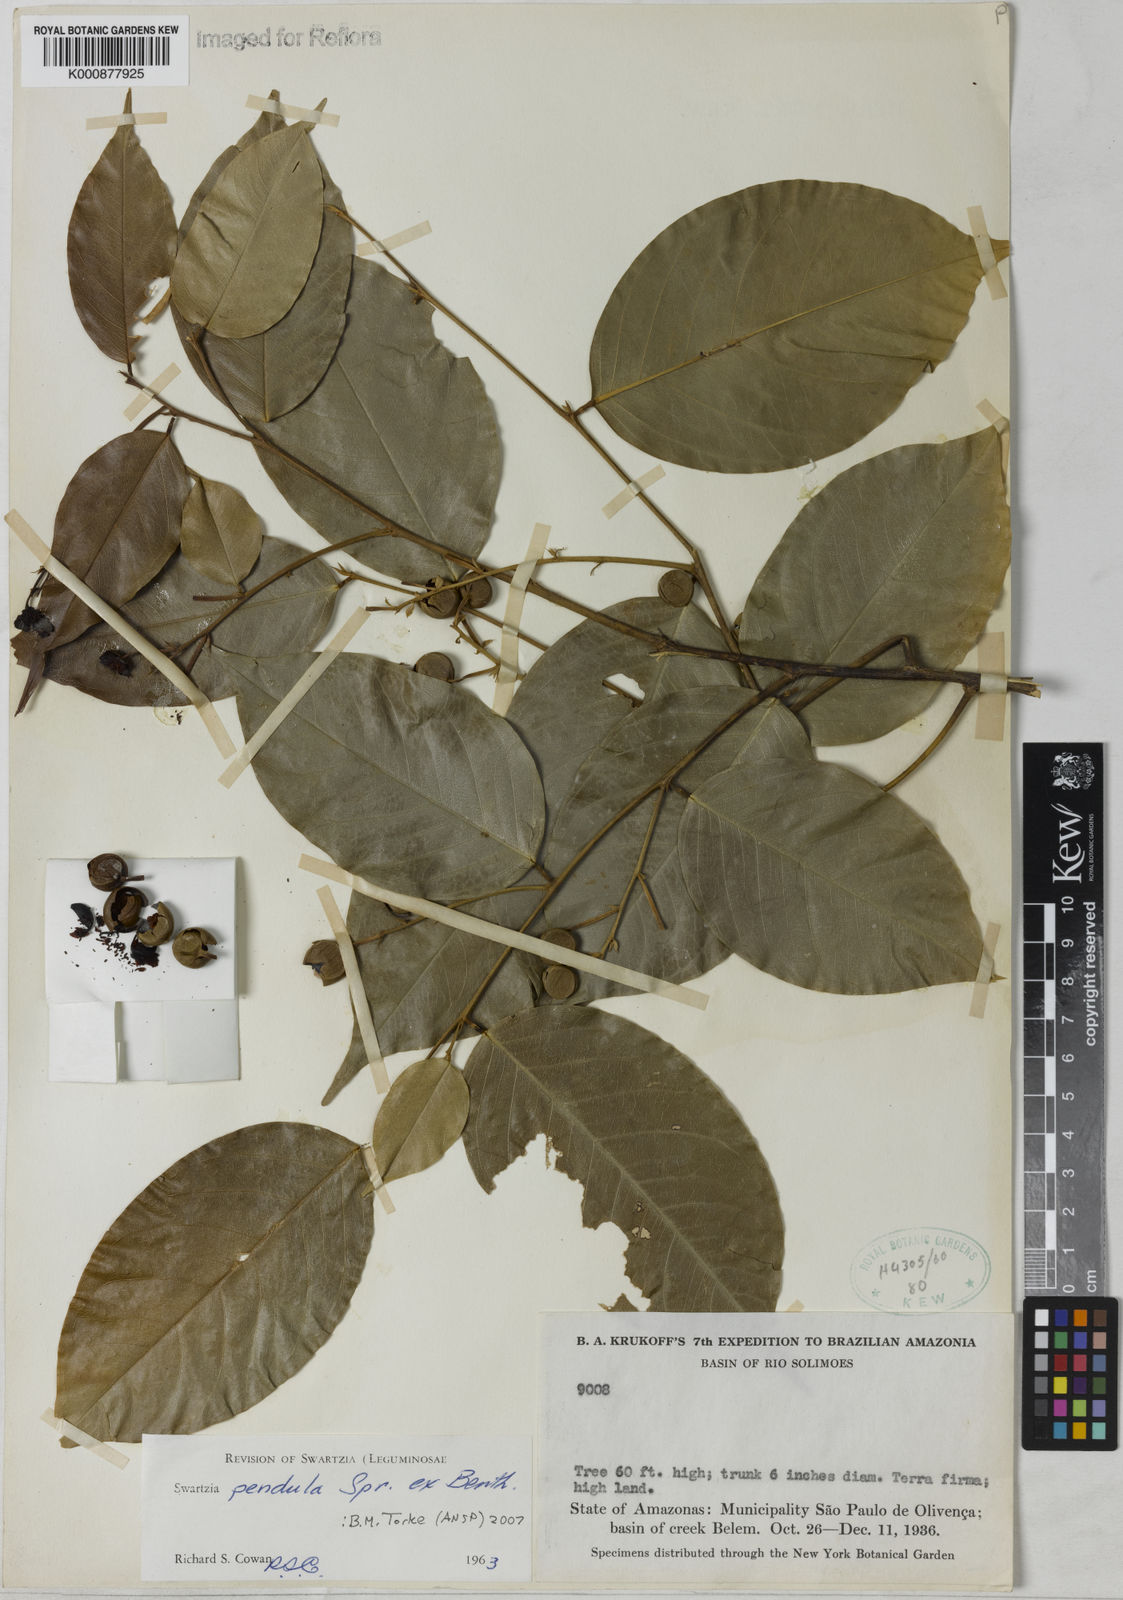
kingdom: Plantae
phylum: Tracheophyta
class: Magnoliopsida
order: Fabales
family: Fabaceae
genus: Swartzia
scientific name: Swartzia pendula
